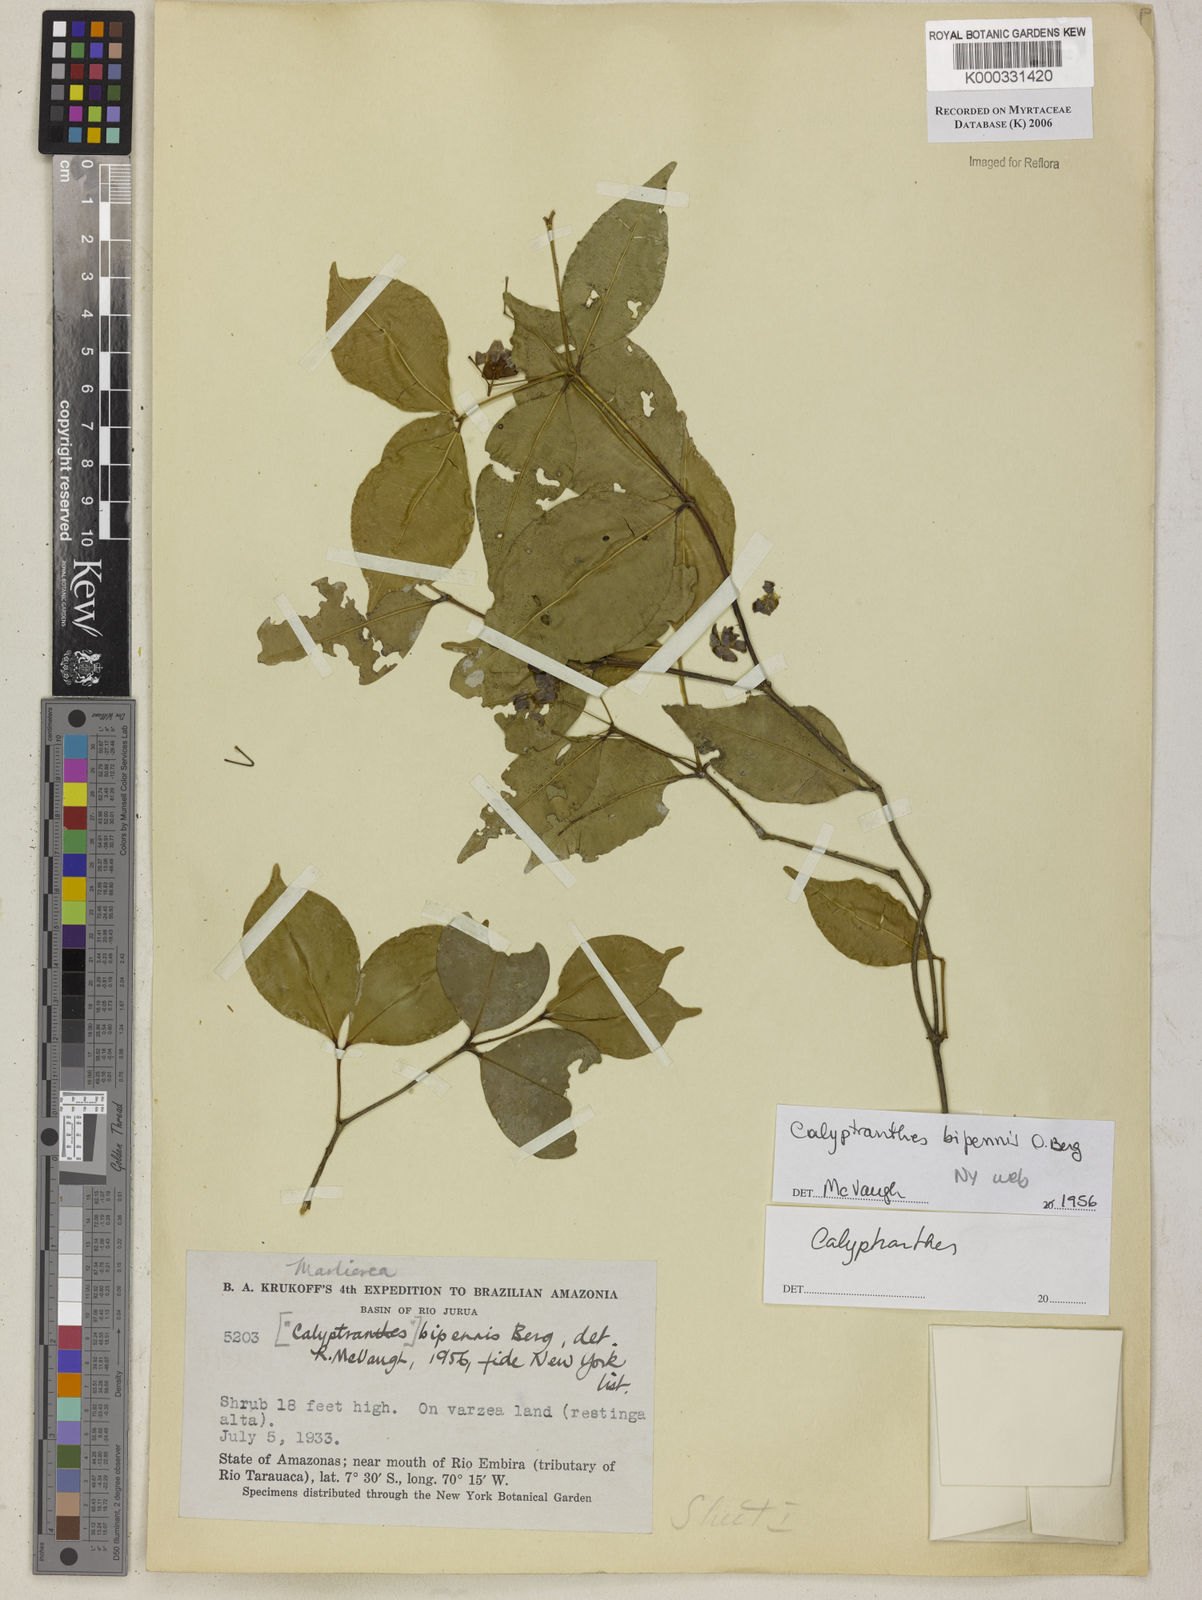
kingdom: Plantae
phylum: Tracheophyta
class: Magnoliopsida
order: Myrtales
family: Myrtaceae
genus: Calyptranthes
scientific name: Calyptranthes
